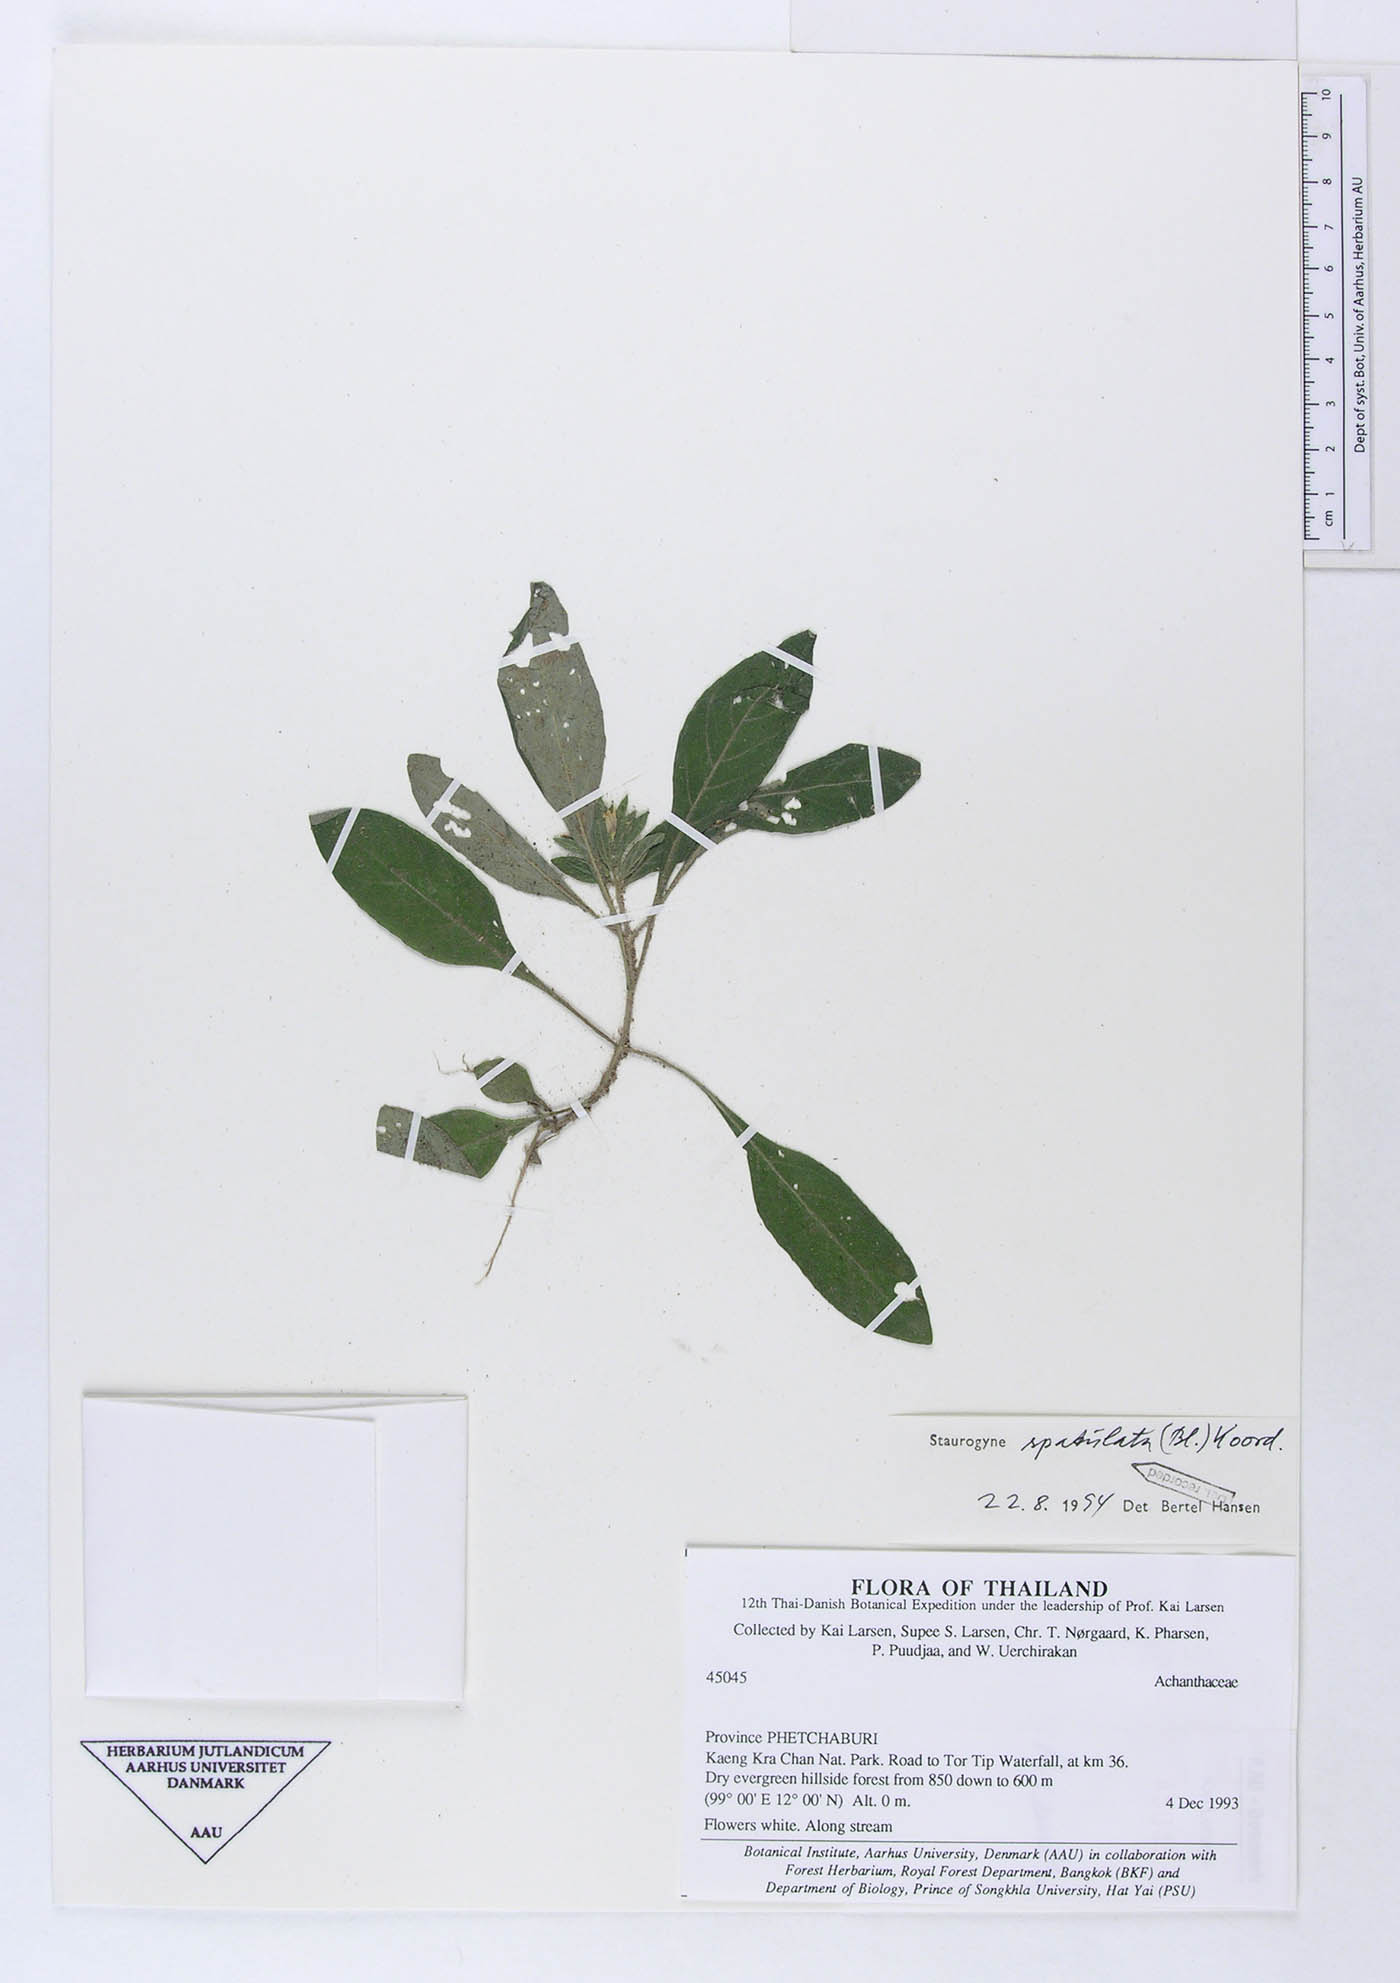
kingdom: Plantae
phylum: Tracheophyta
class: Magnoliopsida
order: Lamiales
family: Acanthaceae
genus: Staurogyne
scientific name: Staurogyne setigera
